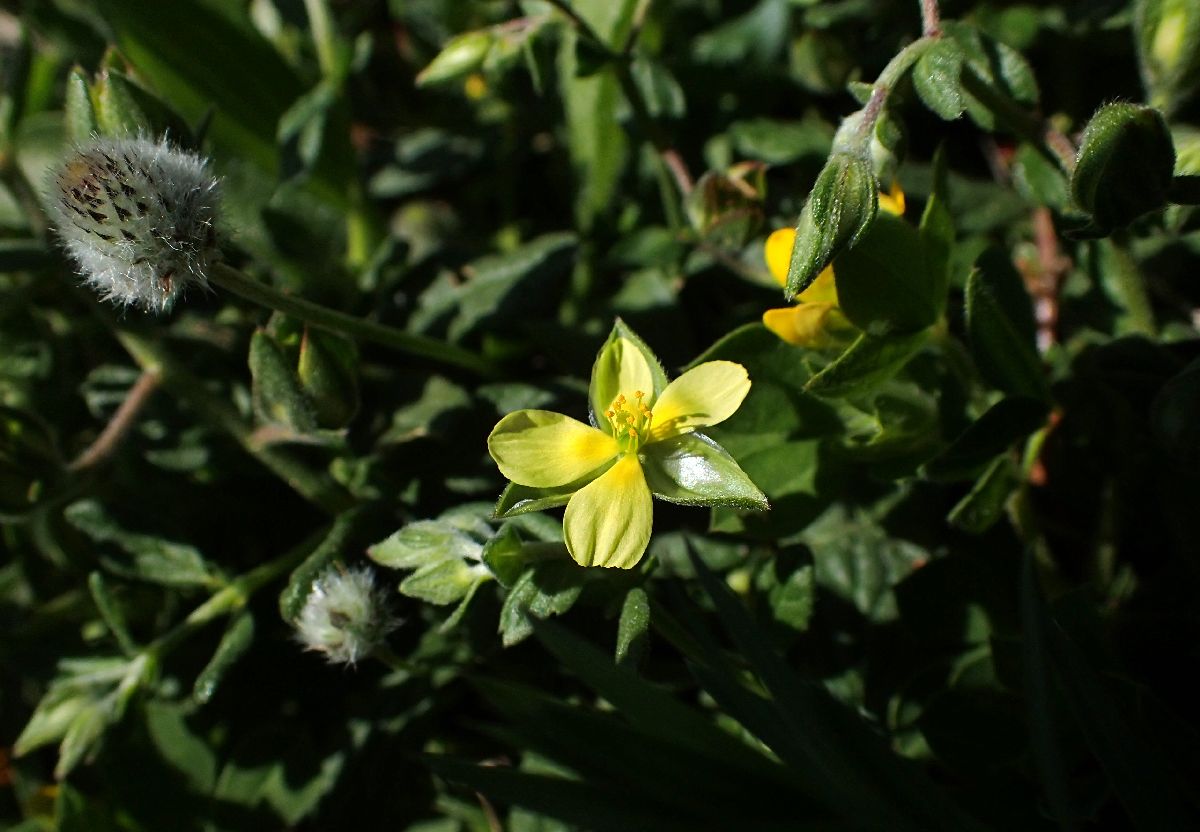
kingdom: Plantae
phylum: Tracheophyta
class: Magnoliopsida
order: Malvales
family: Cistaceae
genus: Helianthemum
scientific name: Helianthemum salicifolium
